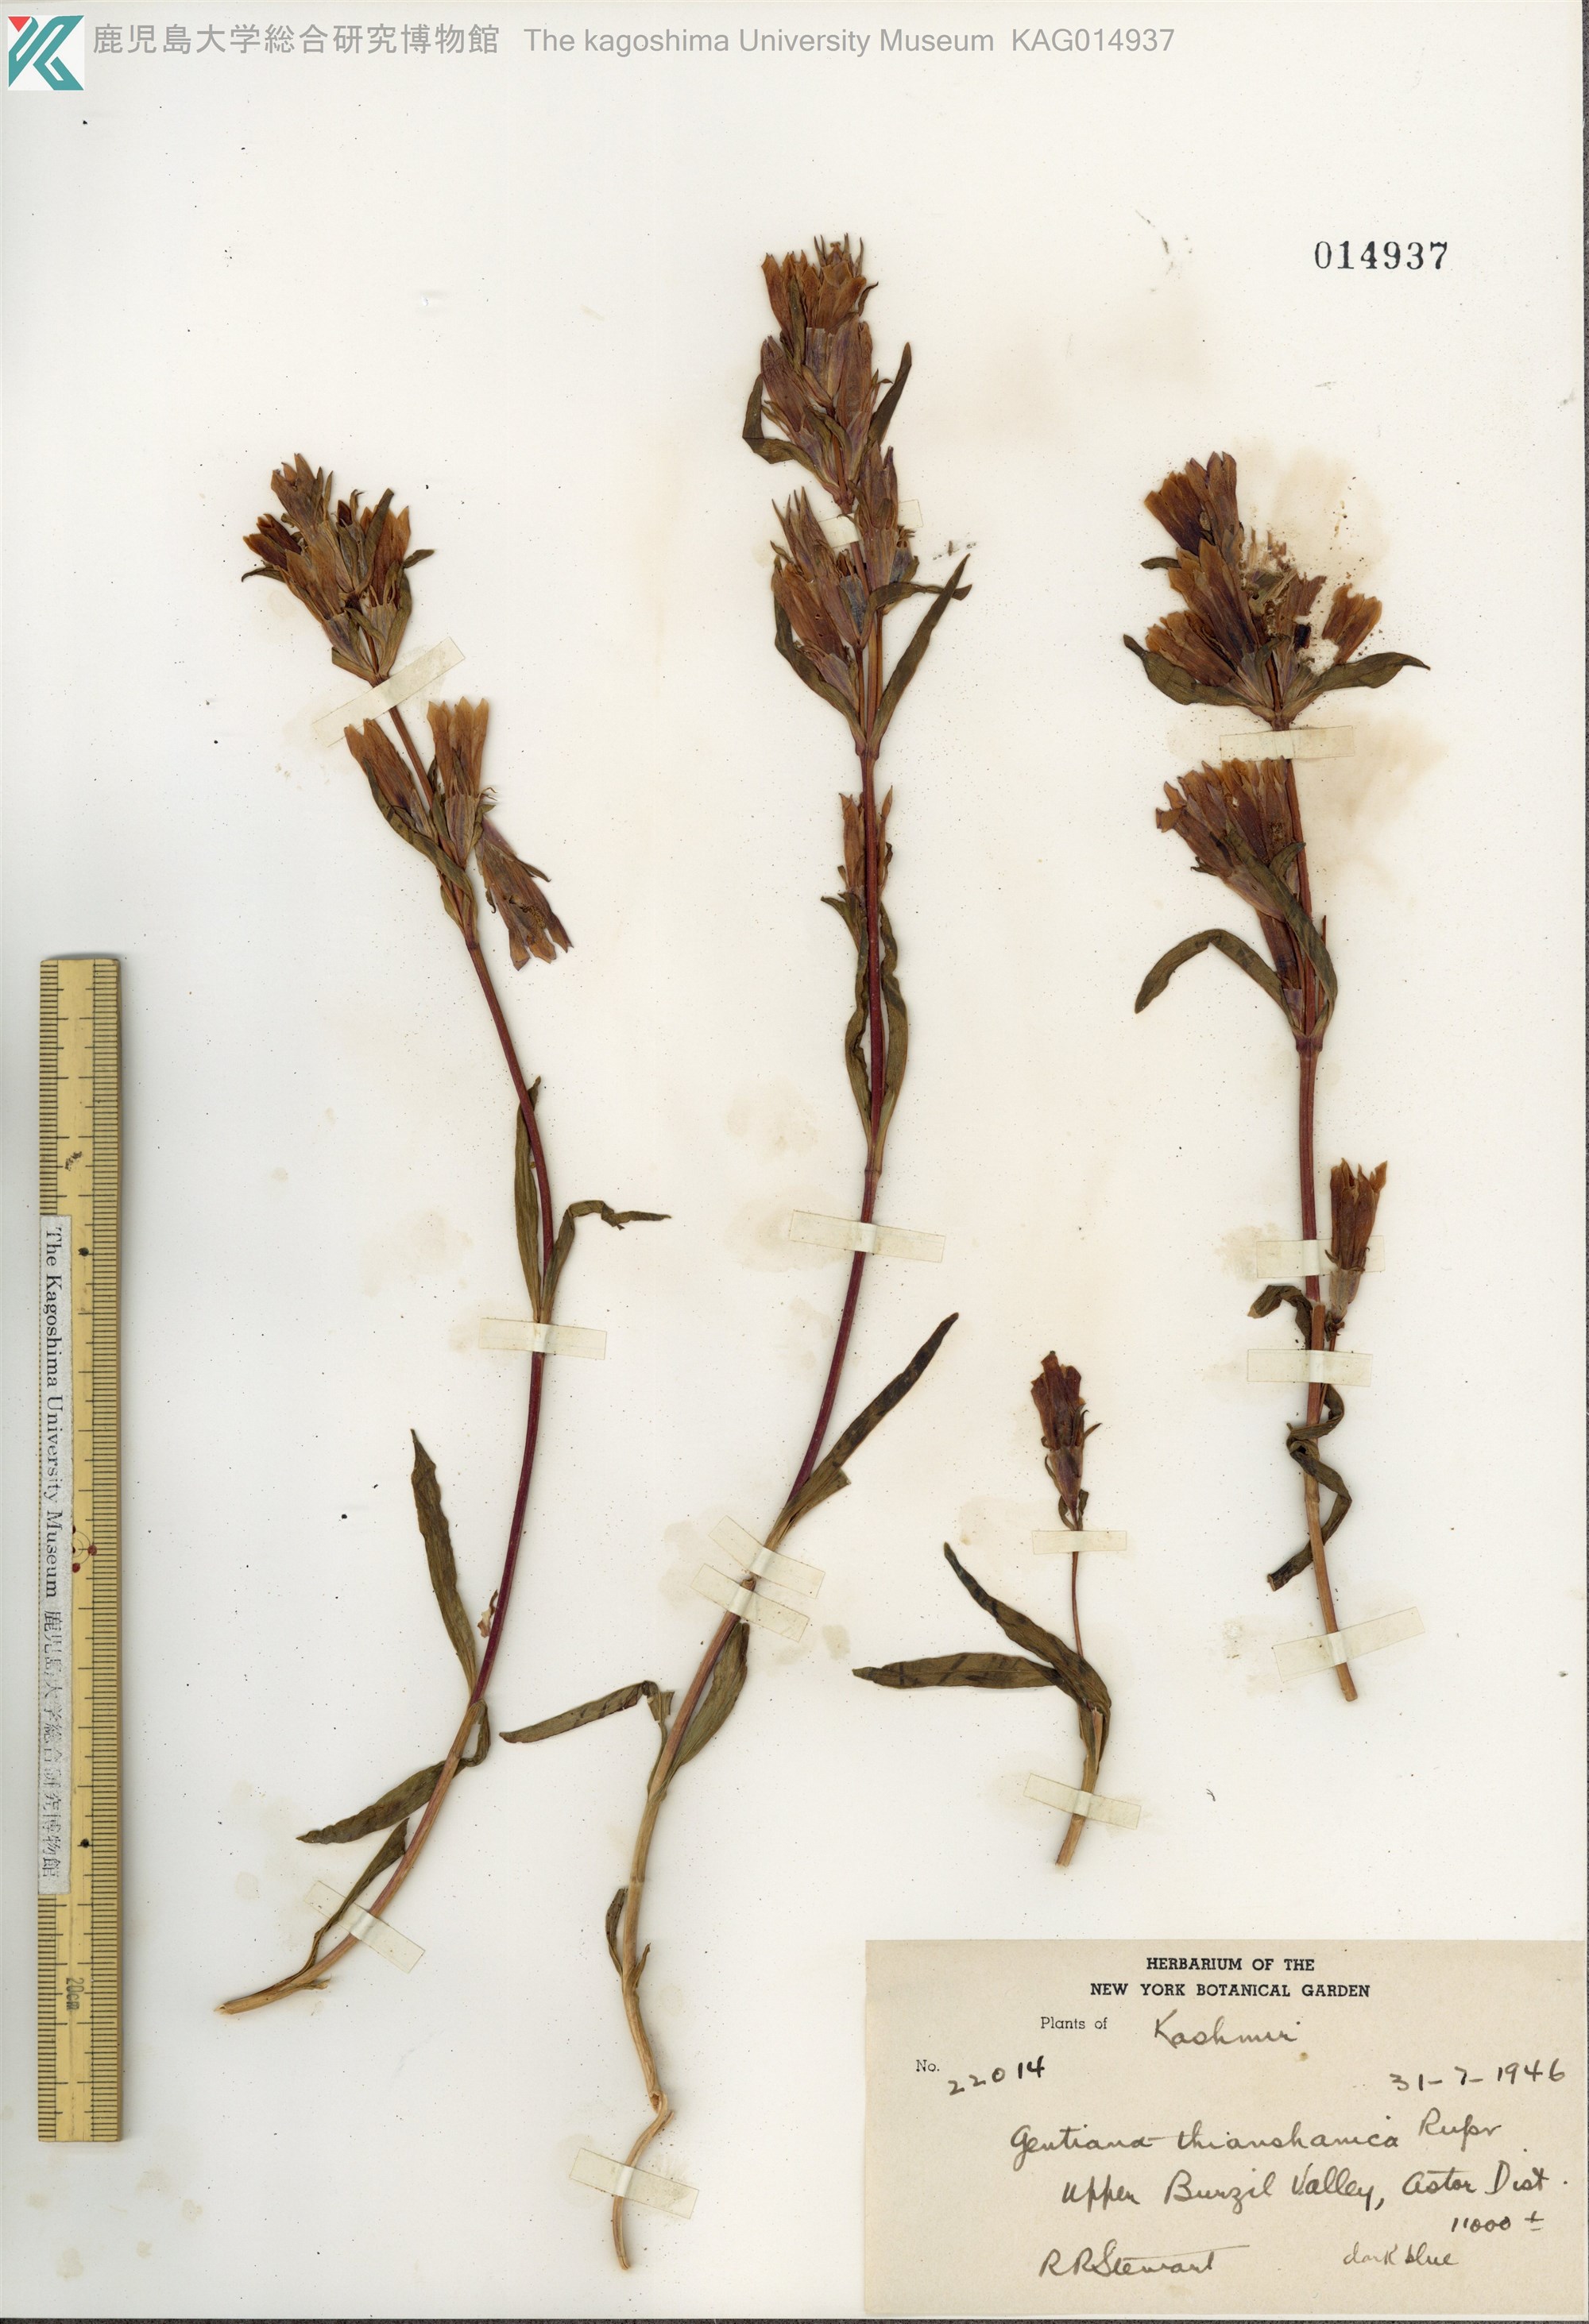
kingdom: Plantae
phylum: Tracheophyta
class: Magnoliopsida
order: Gentianales
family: Gentianaceae
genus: Gentiana
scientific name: Gentiana tianschanica
